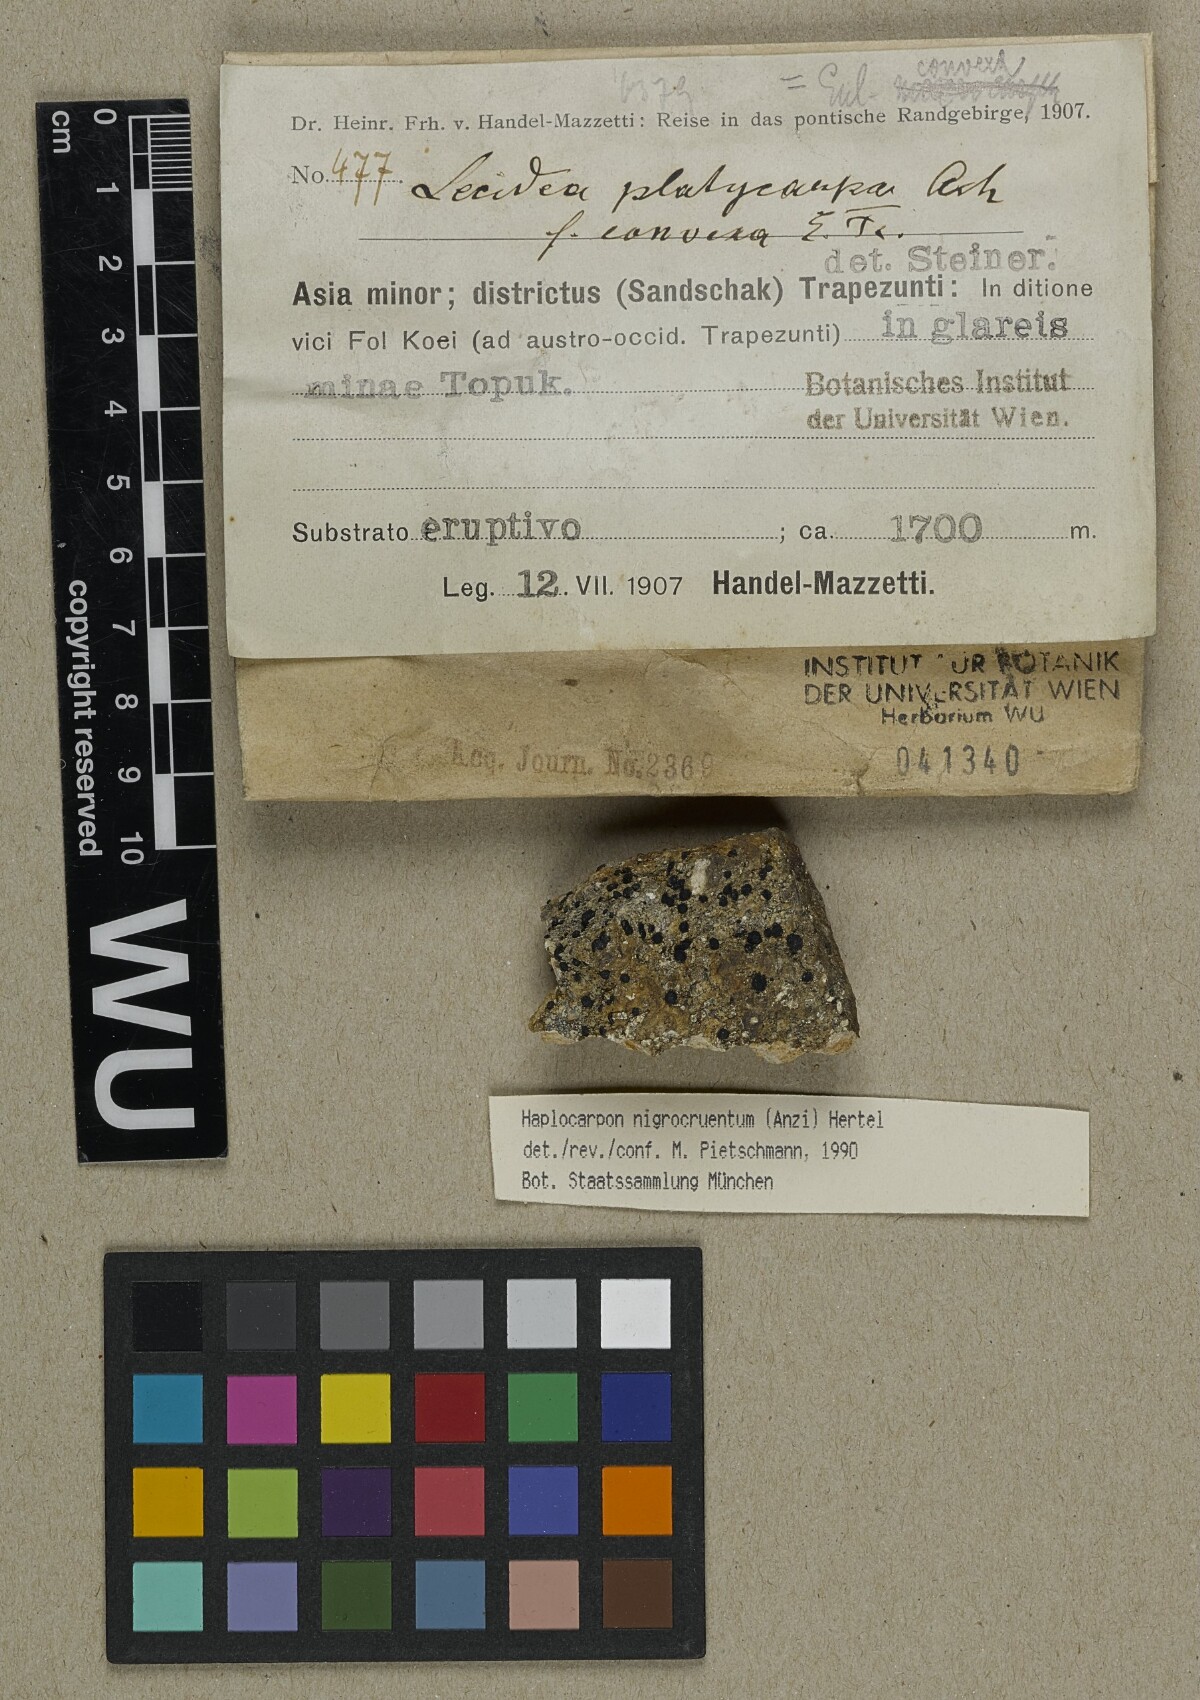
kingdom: Fungi
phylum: Ascomycota
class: Lecanoromycetes
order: Lecideales
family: Lecideaceae
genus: Porpidia
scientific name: Porpidia macrocarpa
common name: Common boulder lichen
